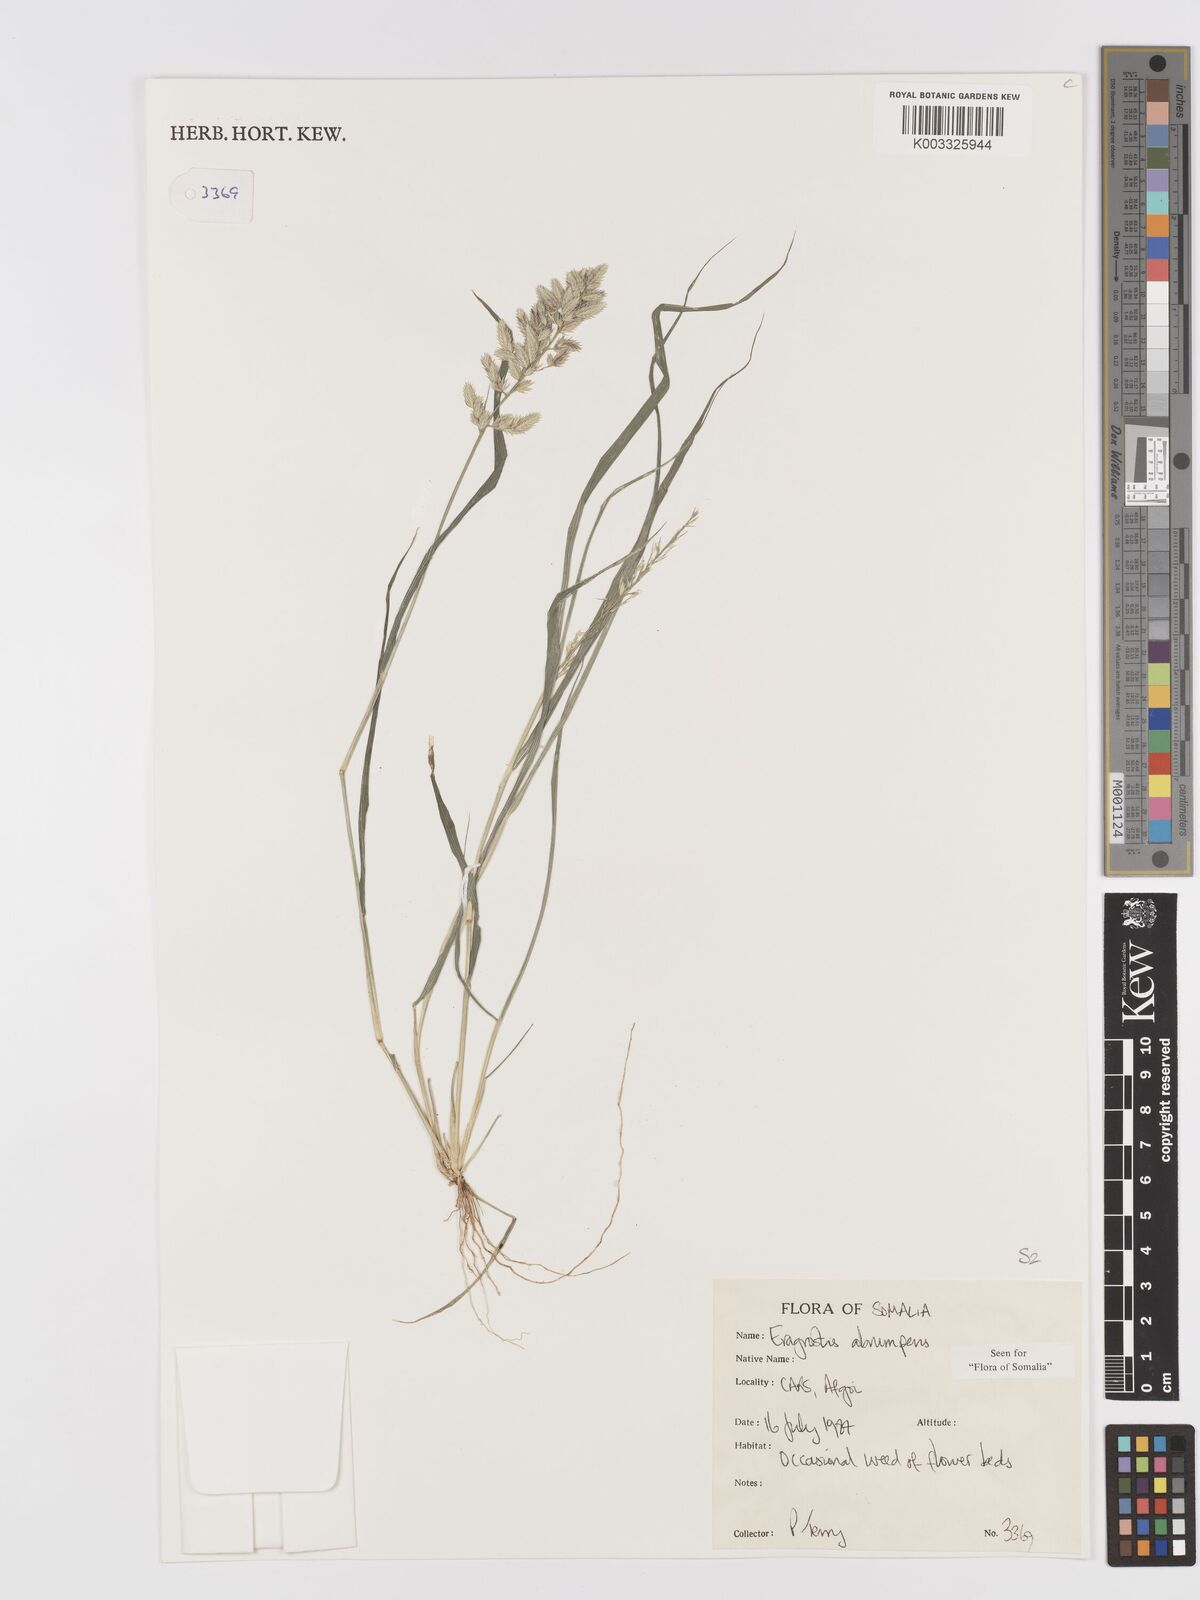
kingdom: Plantae
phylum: Tracheophyta
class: Liliopsida
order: Poales
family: Poaceae
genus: Eragrostis
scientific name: Eragrostis sennii
